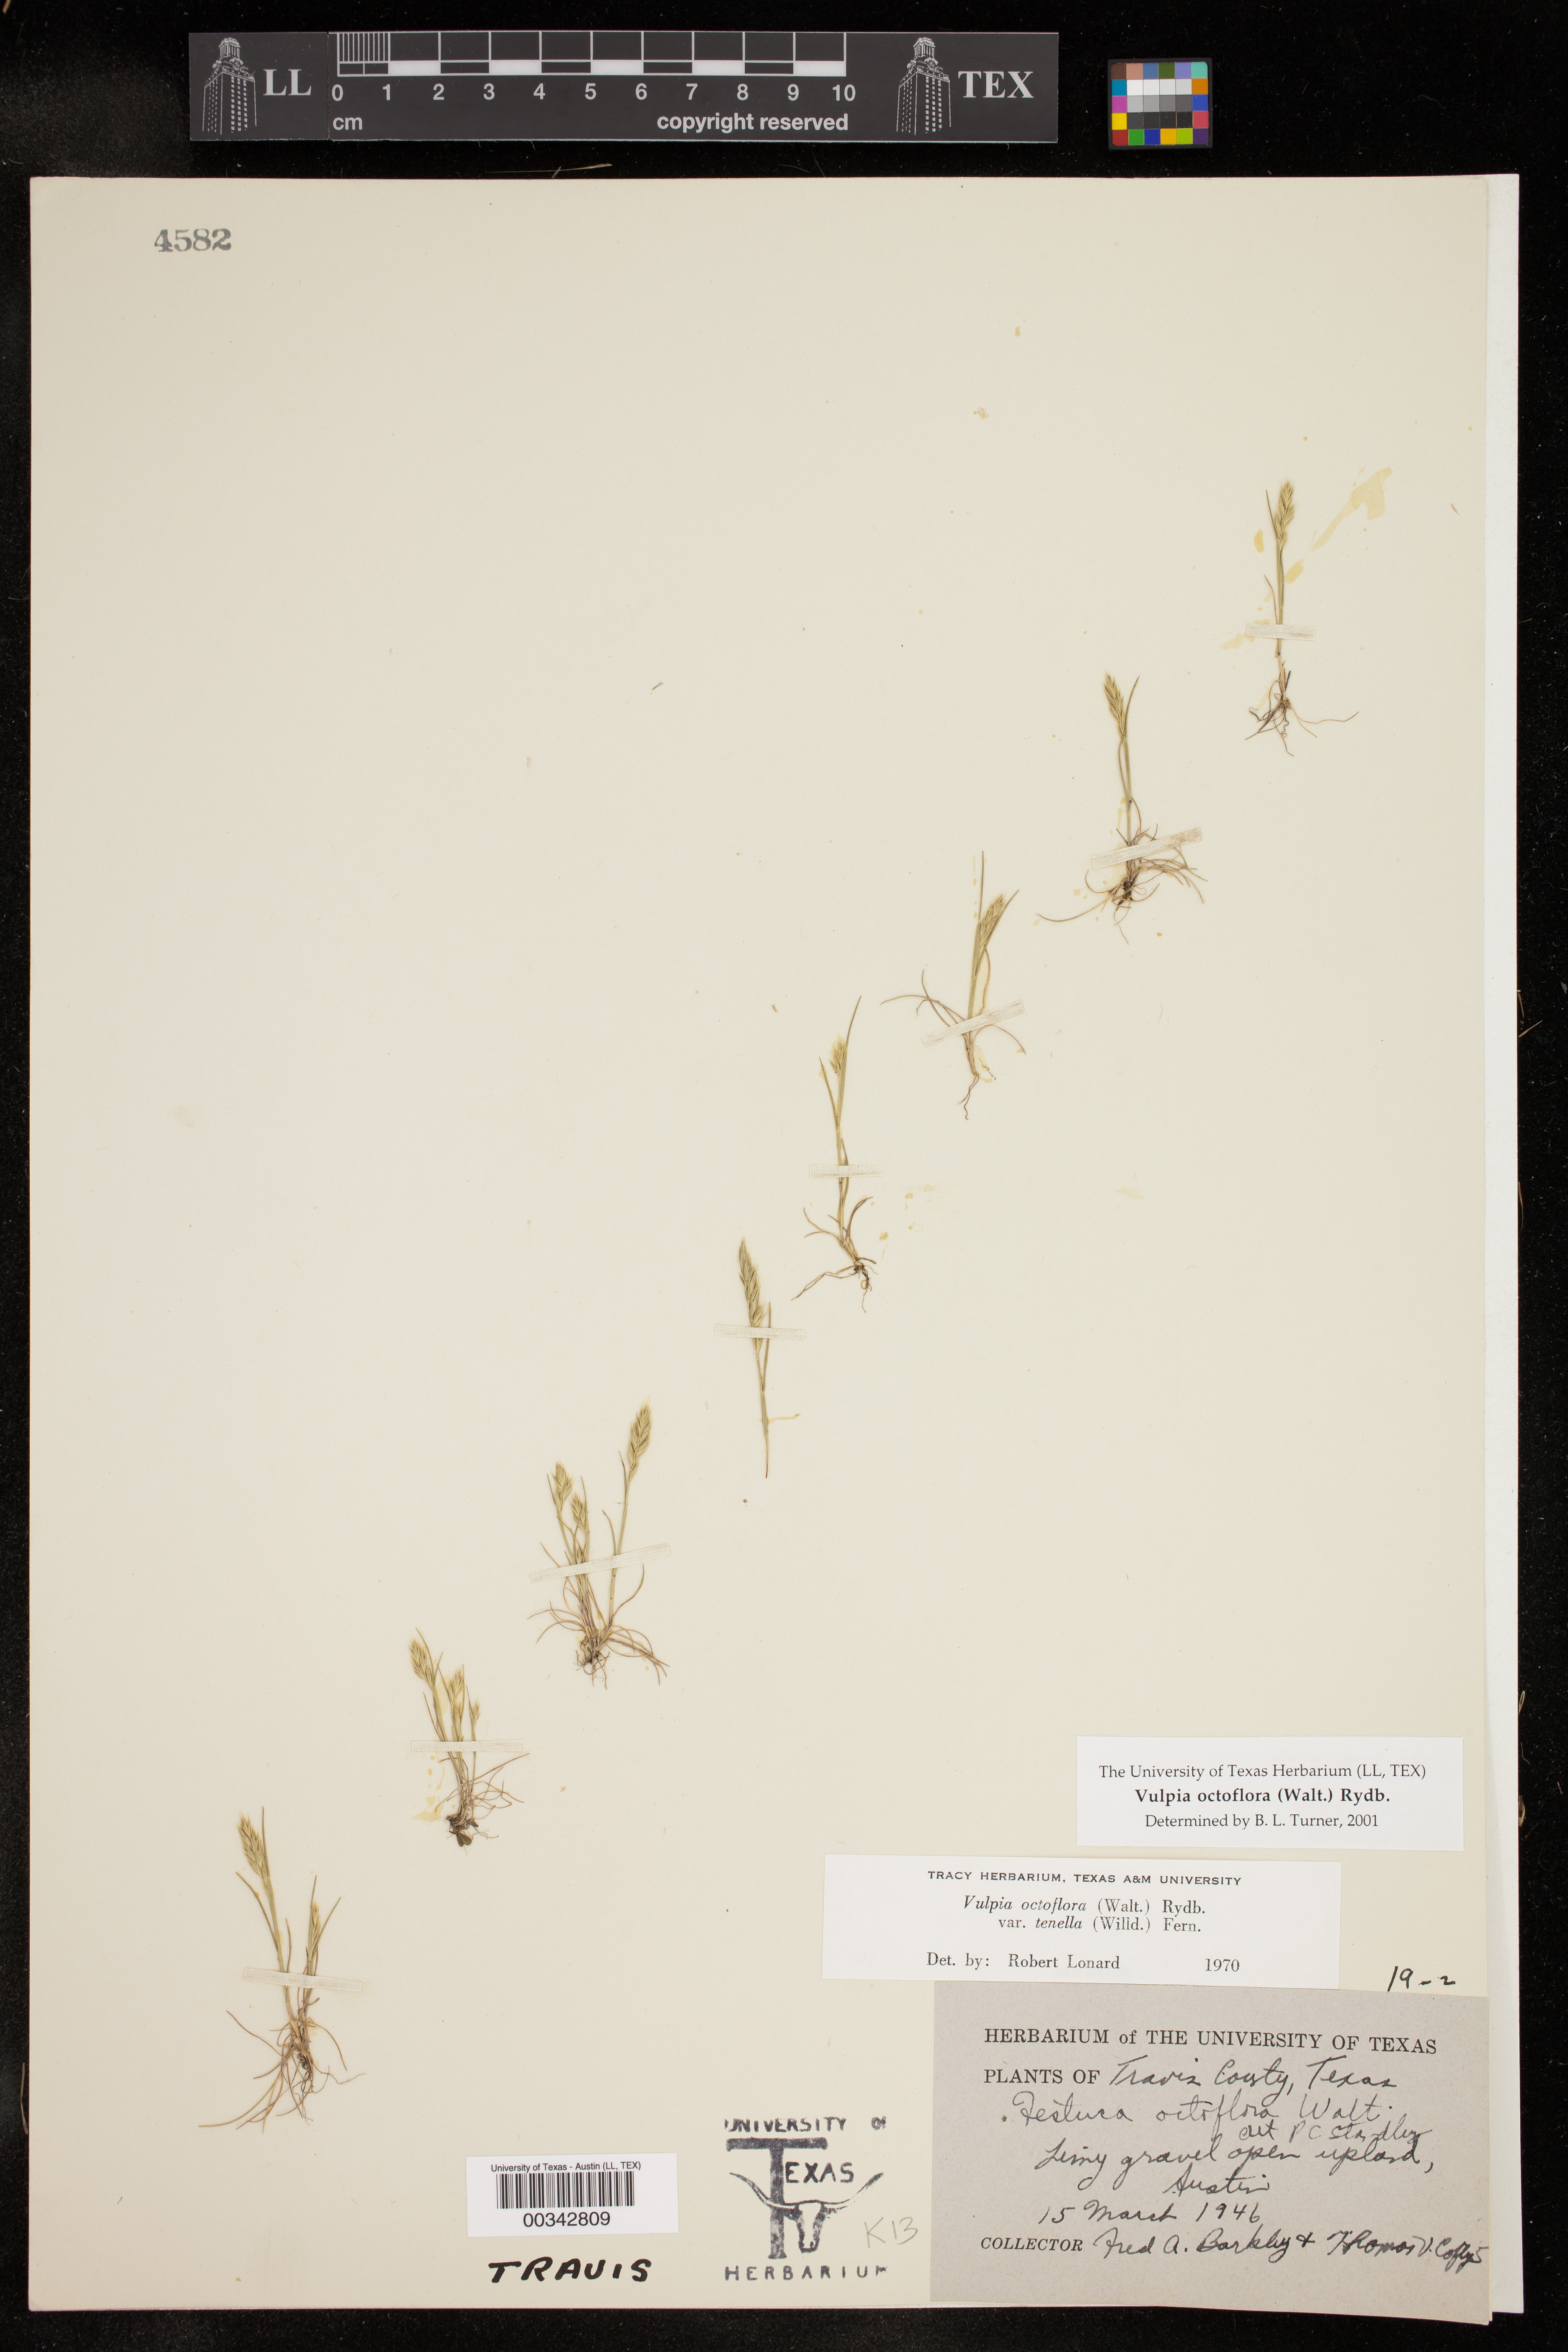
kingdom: Plantae
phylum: Tracheophyta
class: Liliopsida
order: Poales
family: Poaceae
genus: Festuca
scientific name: Festuca octoflora
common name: Sixweeks grass
